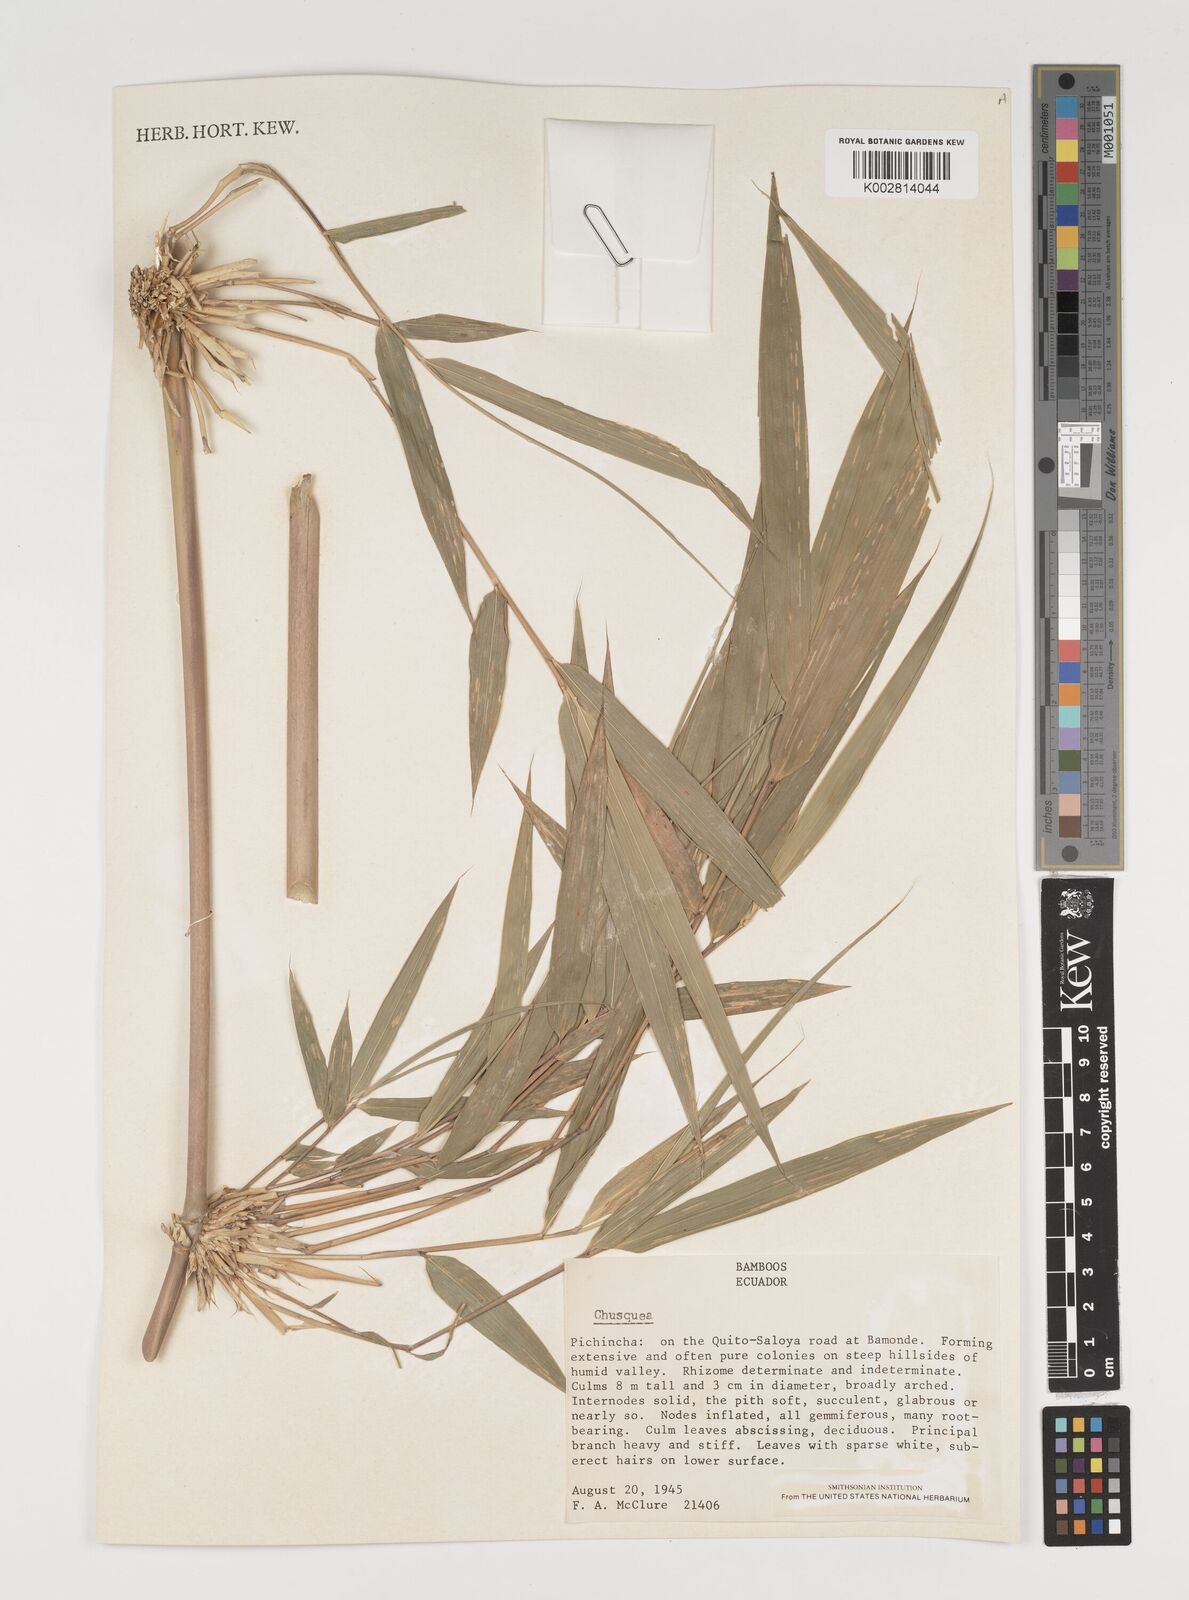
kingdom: Plantae
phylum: Tracheophyta
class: Liliopsida
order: Poales
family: Poaceae
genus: Chusquea
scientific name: Chusquea
